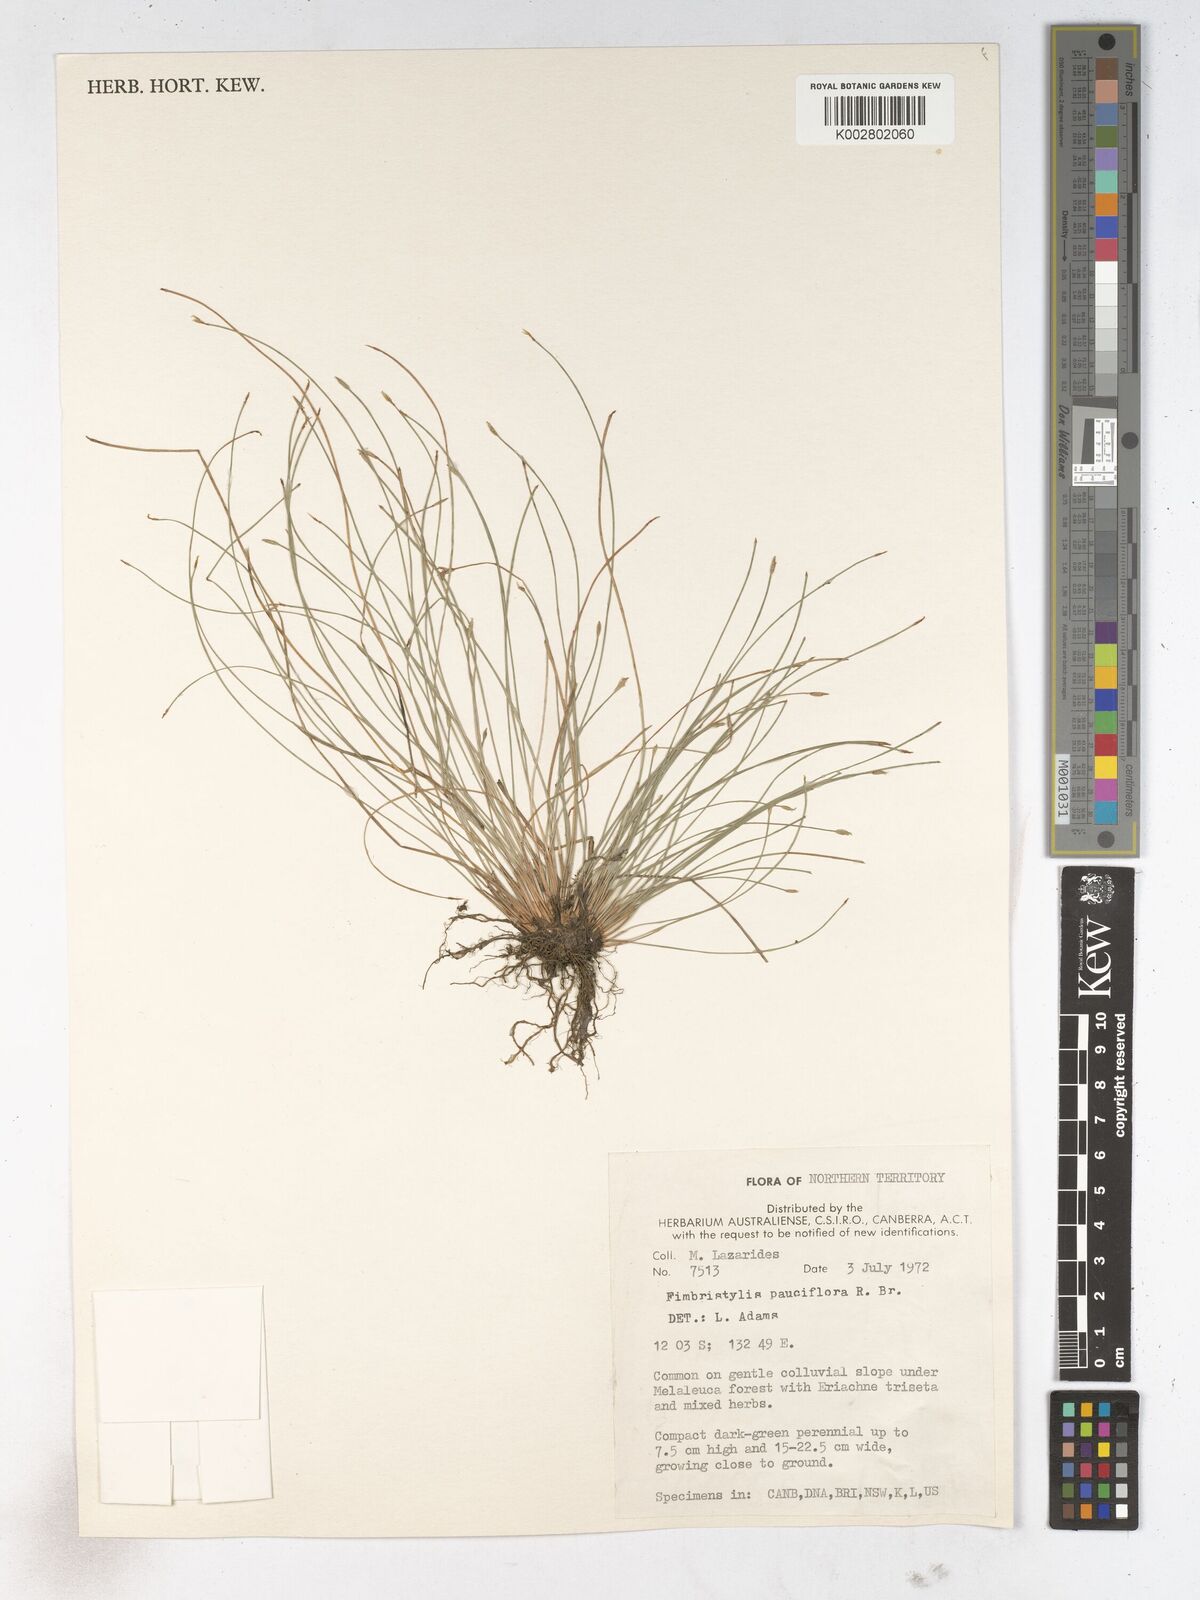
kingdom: Plantae
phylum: Tracheophyta
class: Liliopsida
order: Poales
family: Cyperaceae
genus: Fimbristylis
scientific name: Fimbristylis pauciflora
